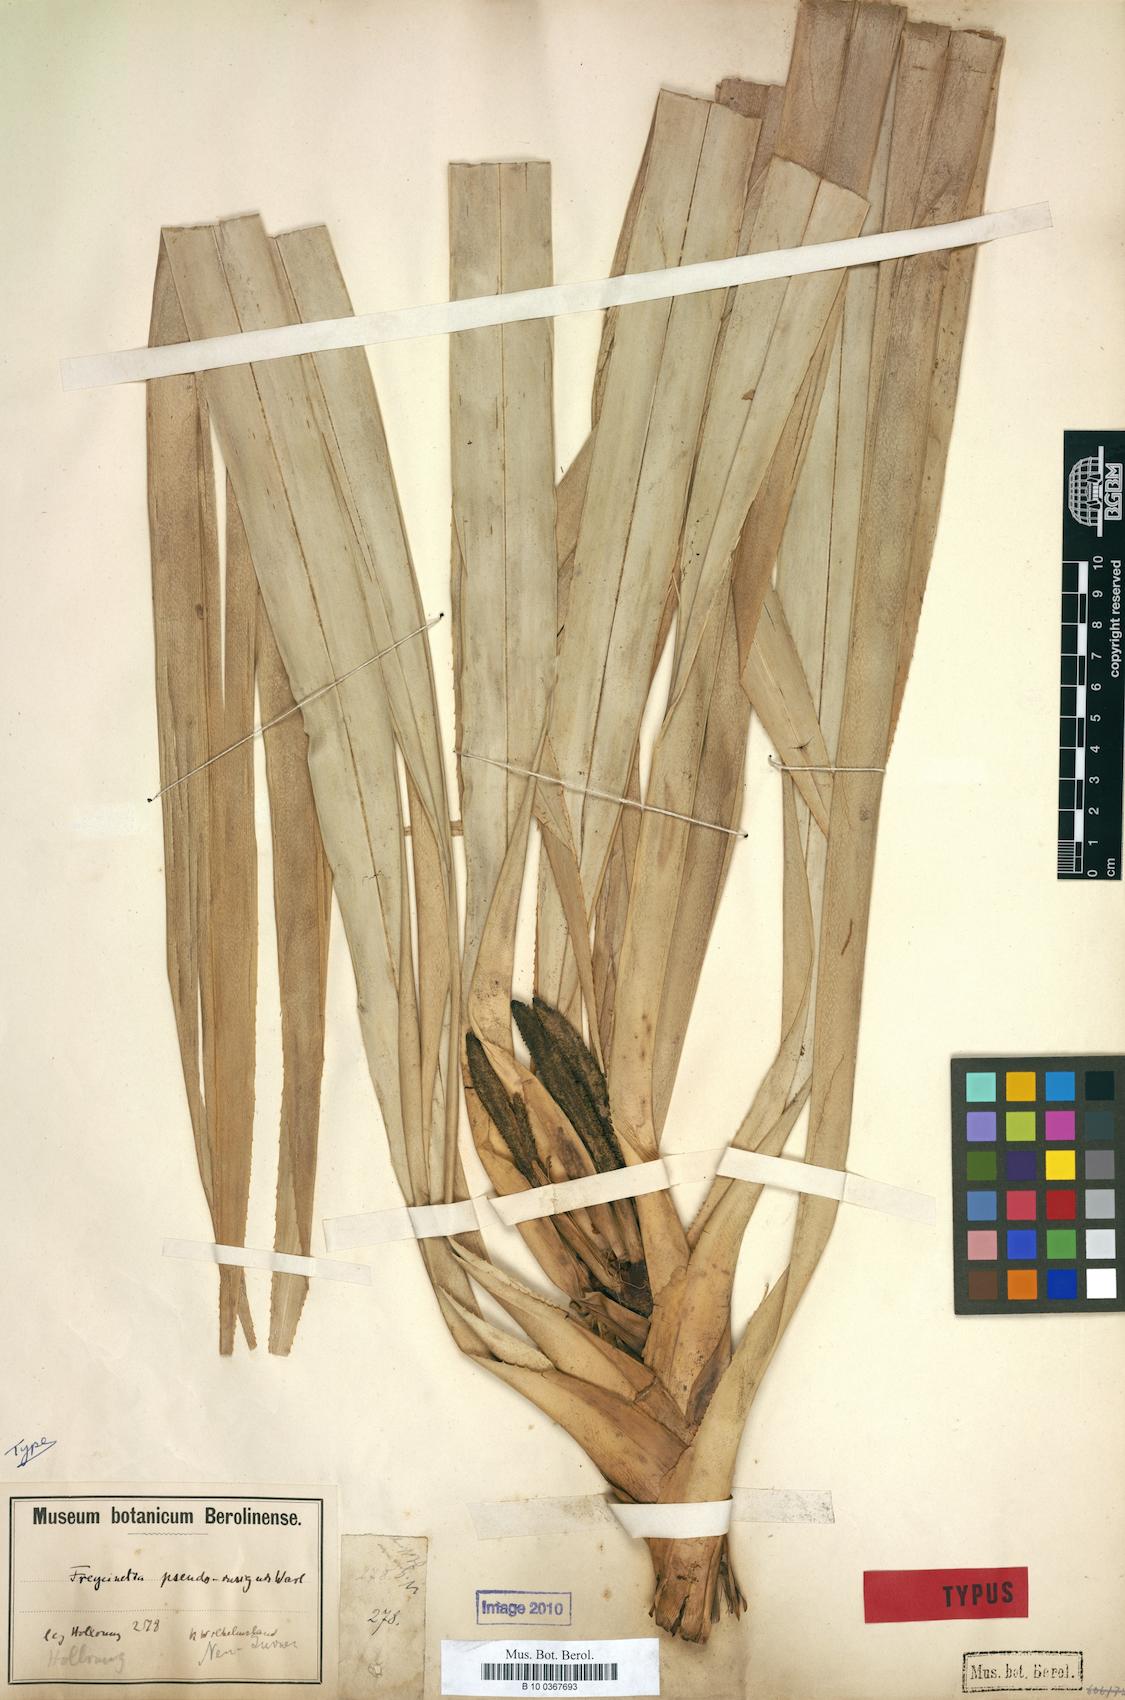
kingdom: Plantae
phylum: Tracheophyta
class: Liliopsida
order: Pandanales
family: Pandanaceae
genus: Freycinetia
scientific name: Freycinetia pseudoinsignis
